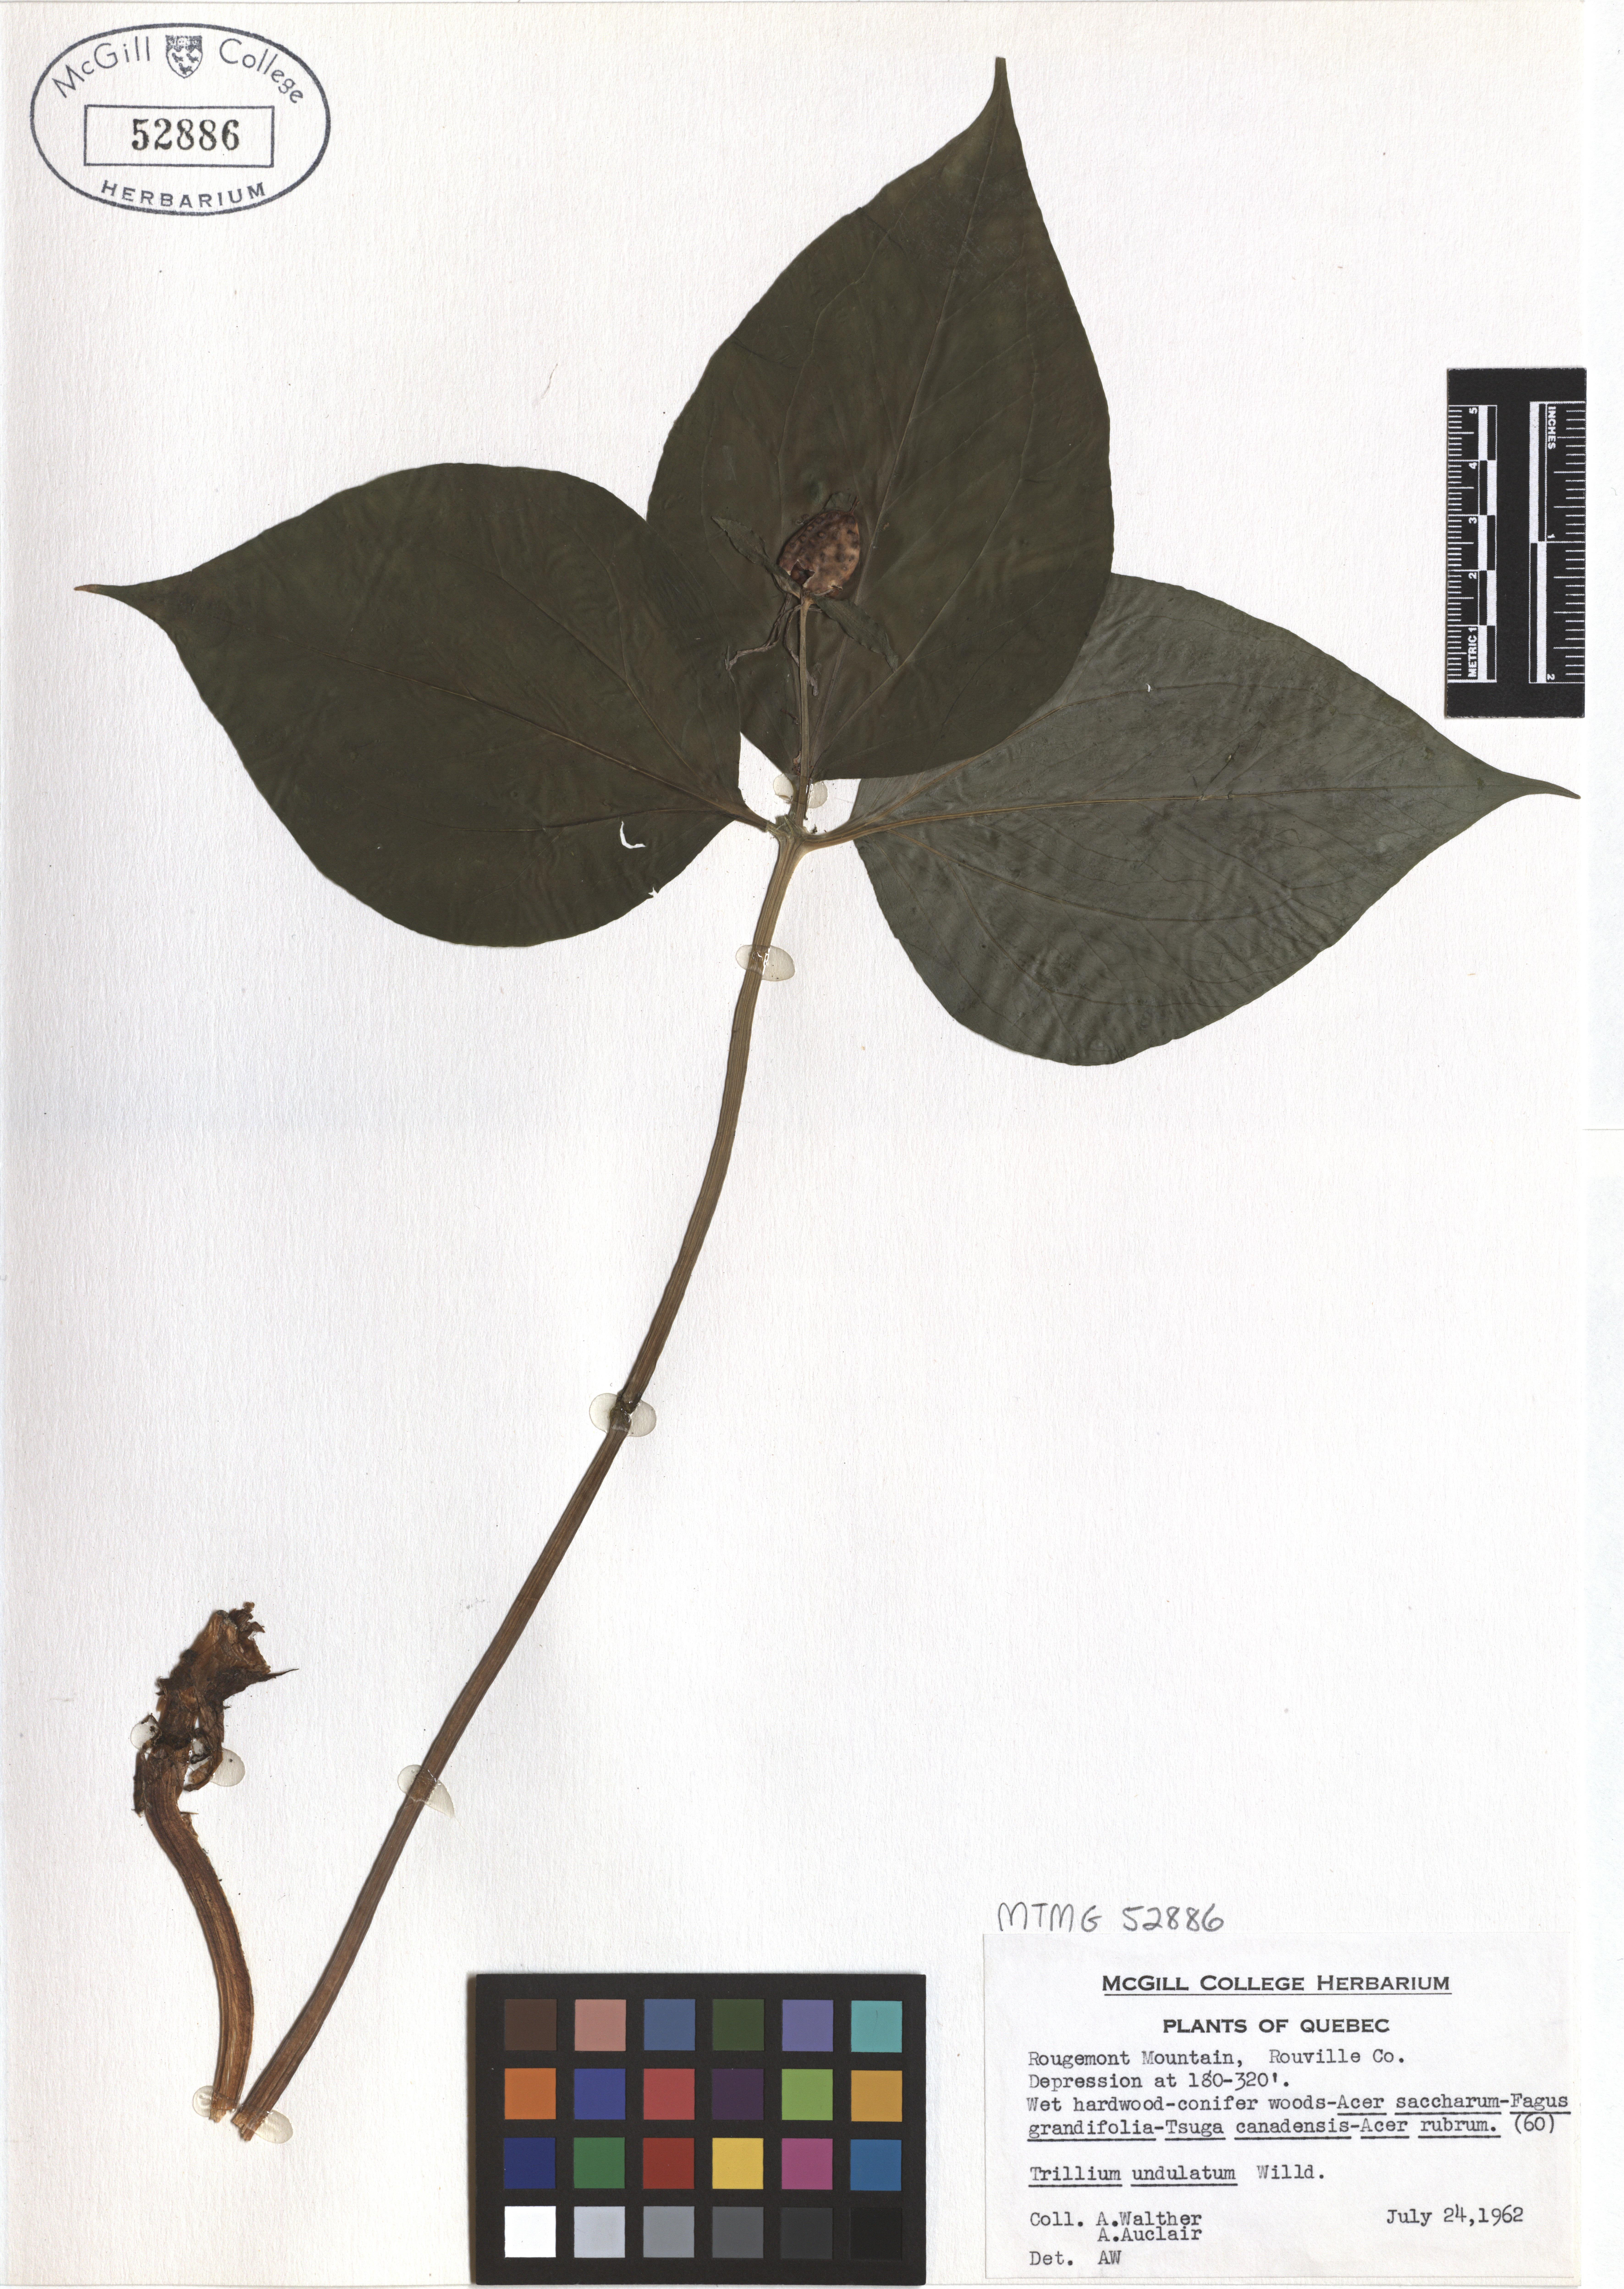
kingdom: Plantae
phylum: Tracheophyta
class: Liliopsida
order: Liliales
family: Melanthiaceae
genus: Trillium
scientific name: Trillium undulatum
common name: Paint trillium
